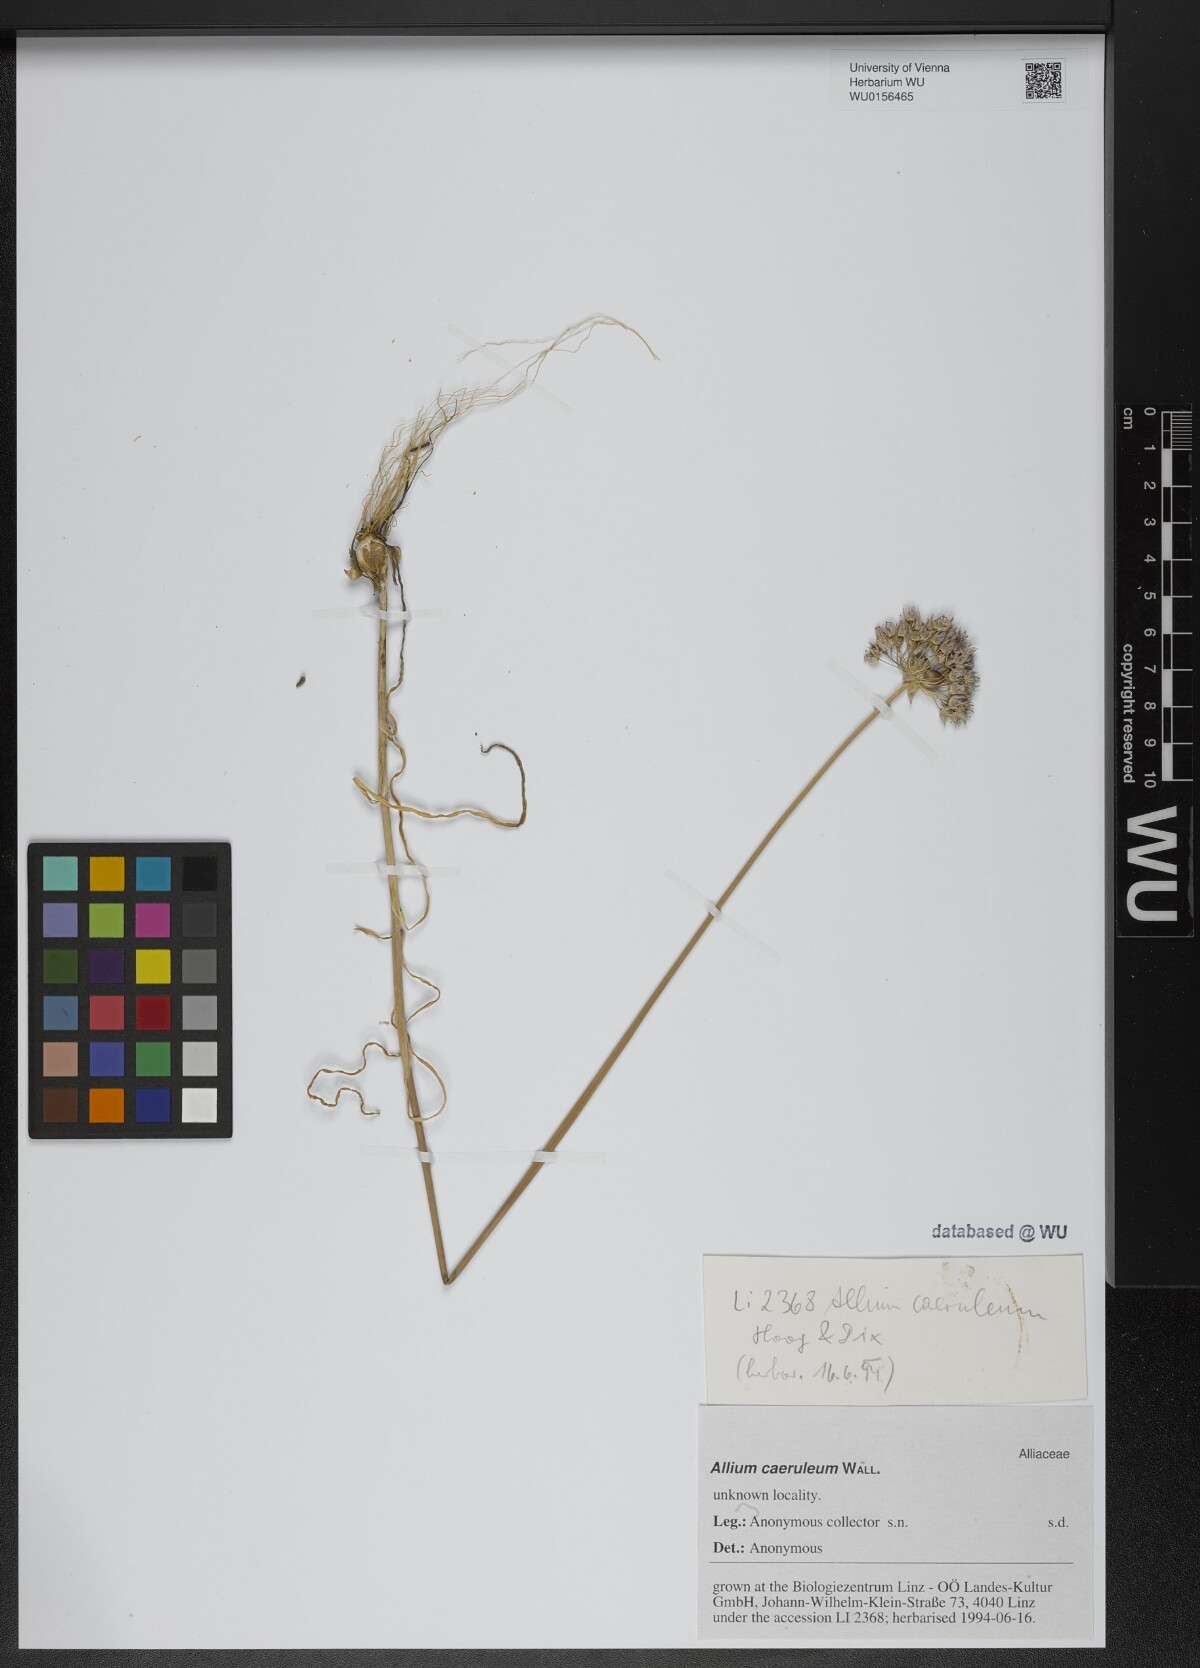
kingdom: Plantae
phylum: Tracheophyta
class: Liliopsida
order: Asparagales
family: Amaryllidaceae
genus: Allium
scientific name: Allium wallichii
